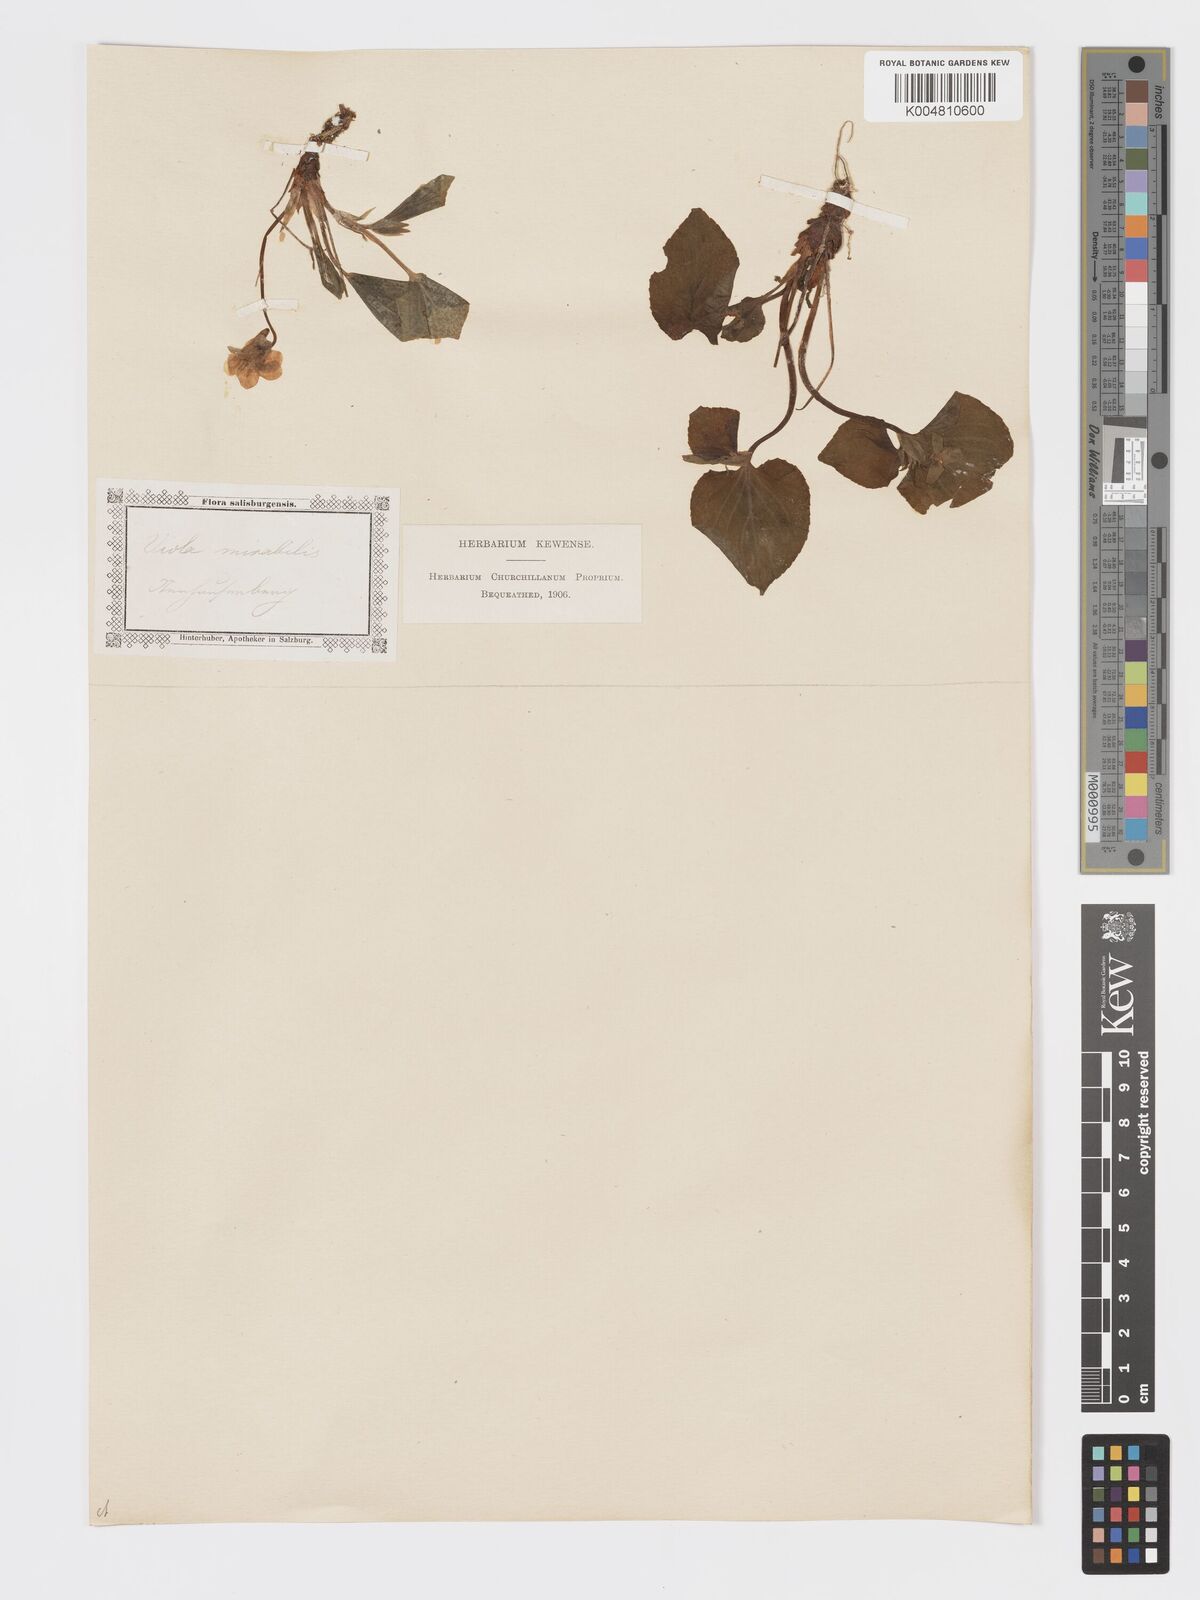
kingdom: Plantae
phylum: Tracheophyta
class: Magnoliopsida
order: Malpighiales
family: Violaceae
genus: Viola
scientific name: Viola mirabilis
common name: Wonder violet
